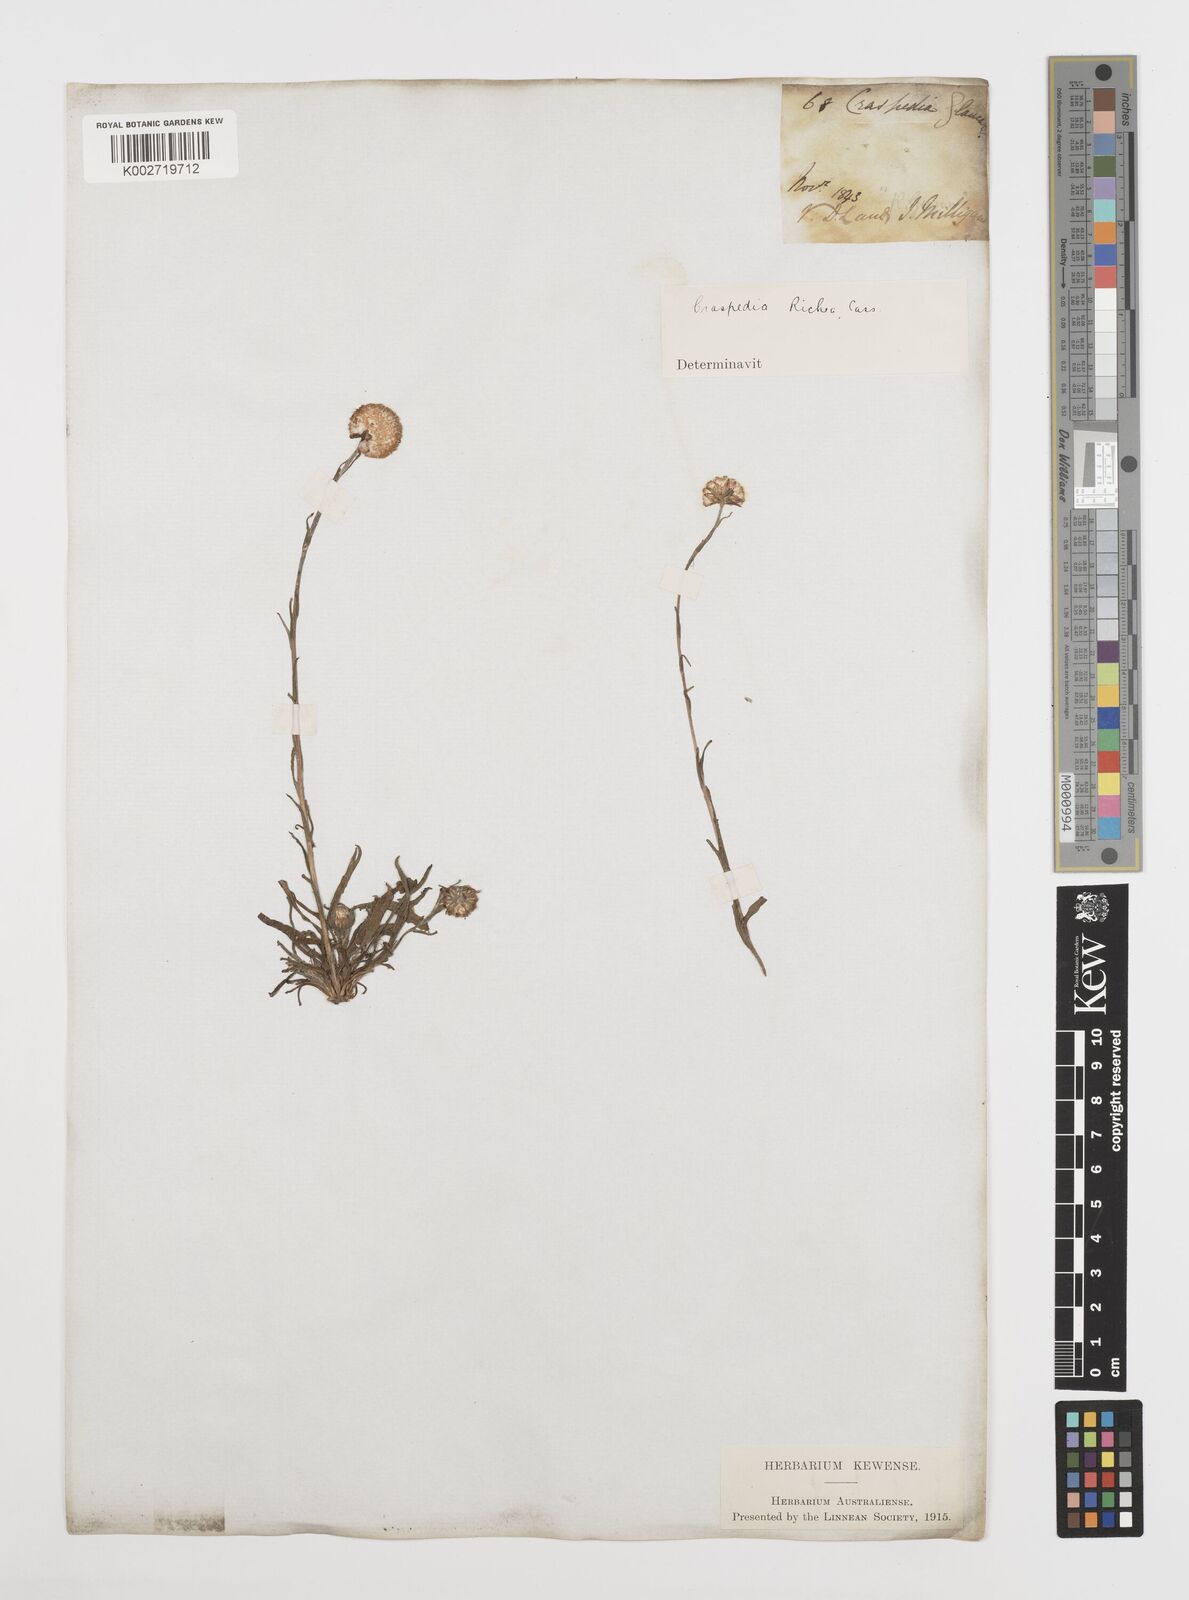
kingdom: Plantae
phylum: Tracheophyta
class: Magnoliopsida
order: Asterales
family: Asteraceae
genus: Craspedia
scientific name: Craspedia glauca
